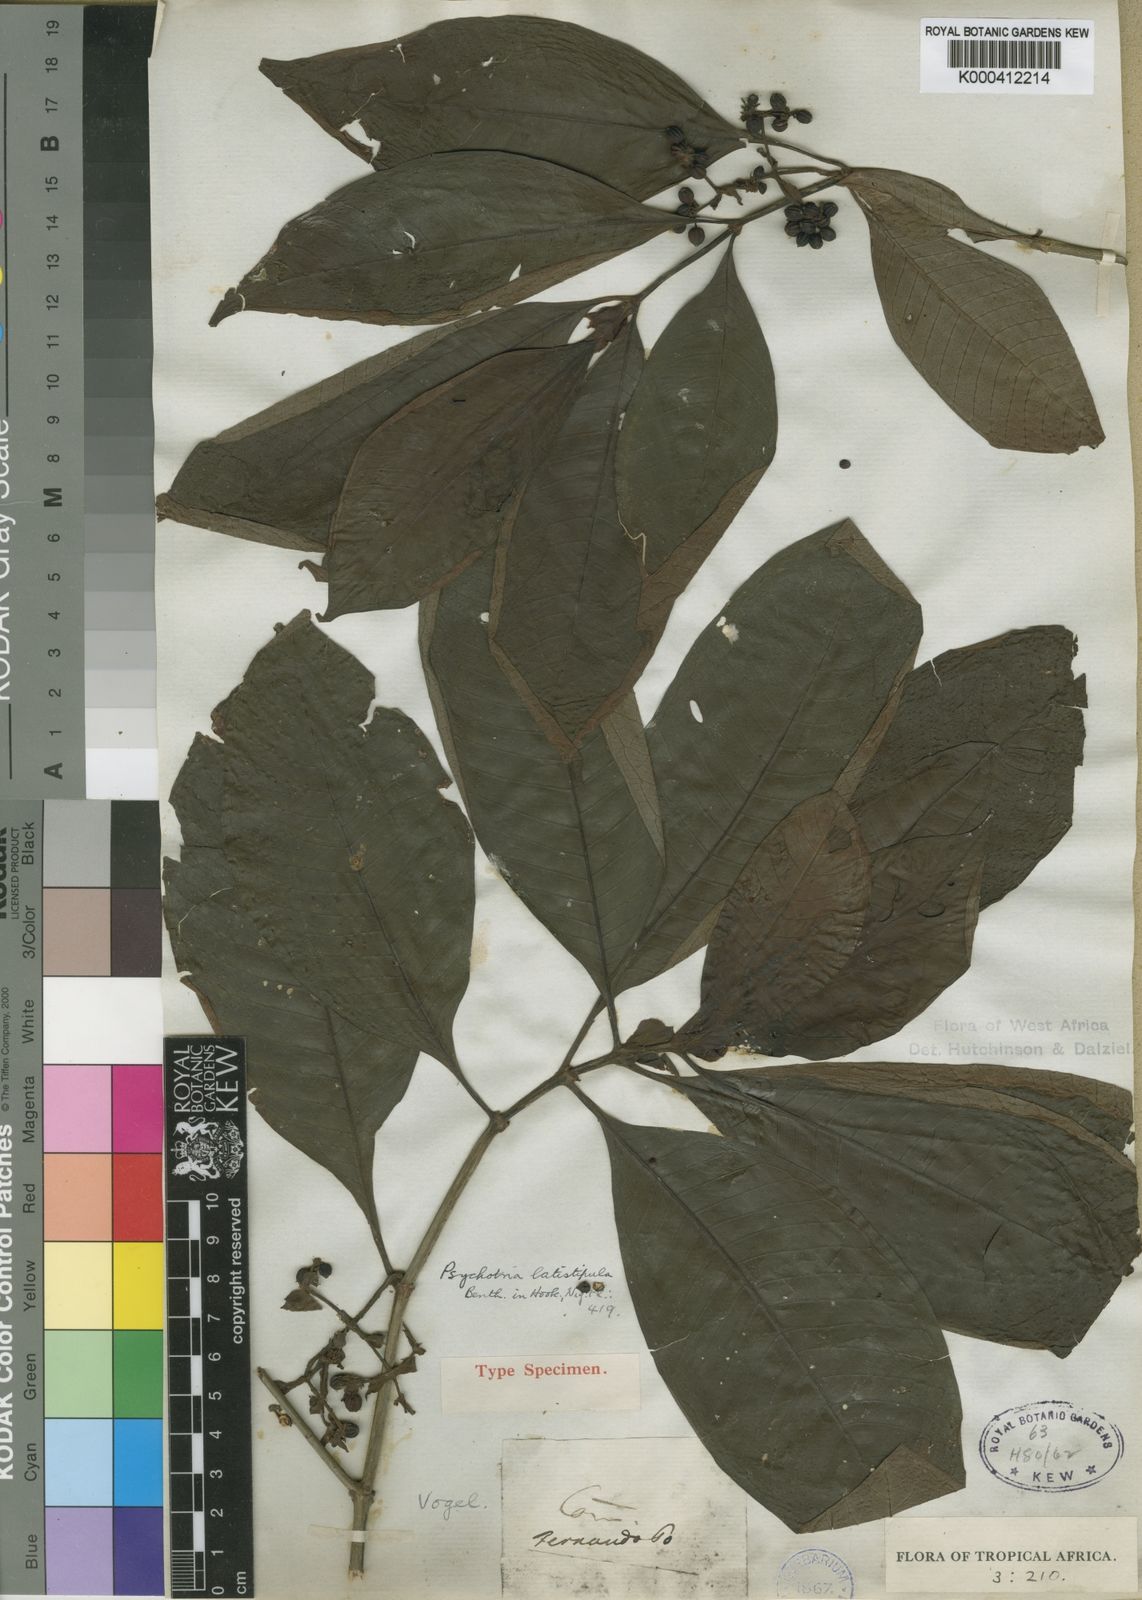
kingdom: Plantae
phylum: Tracheophyta
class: Magnoliopsida
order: Gentianales
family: Rubiaceae
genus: Psychotria
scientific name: Psychotria latistipula
